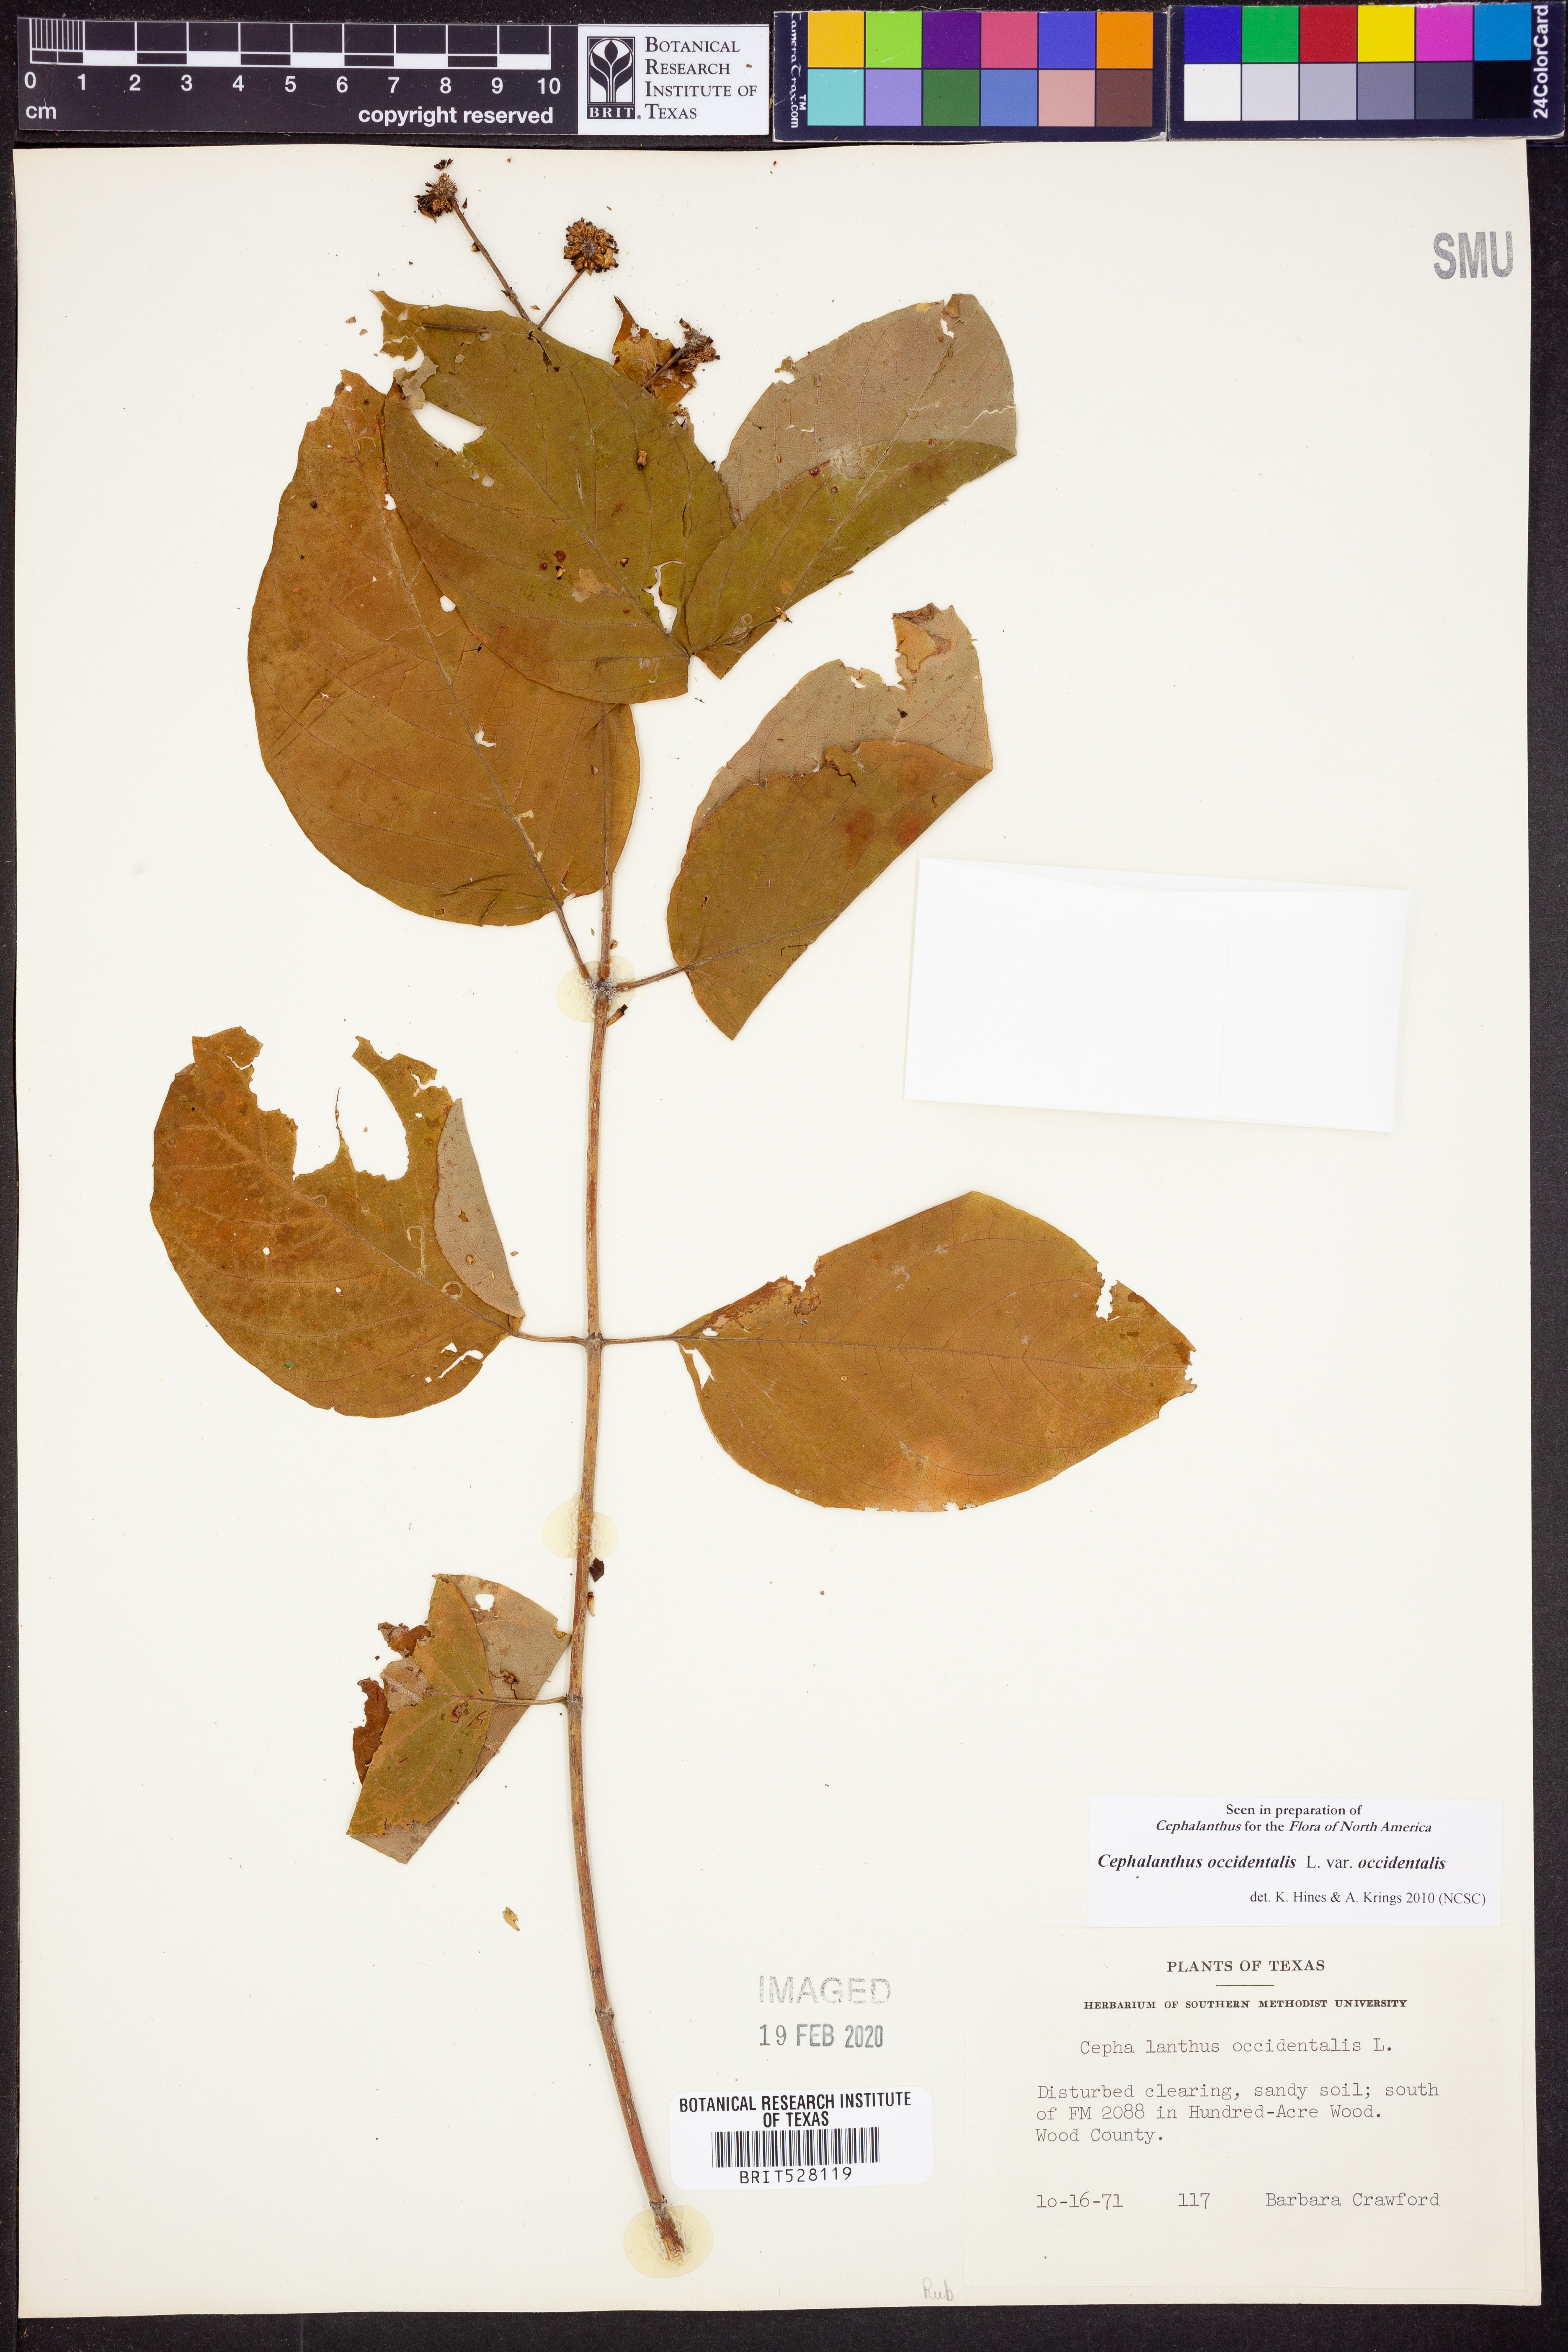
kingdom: Plantae
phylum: Tracheophyta
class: Magnoliopsida
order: Gentianales
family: Rubiaceae
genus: Cephalanthus
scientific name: Cephalanthus occidentalis
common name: Button-willow
